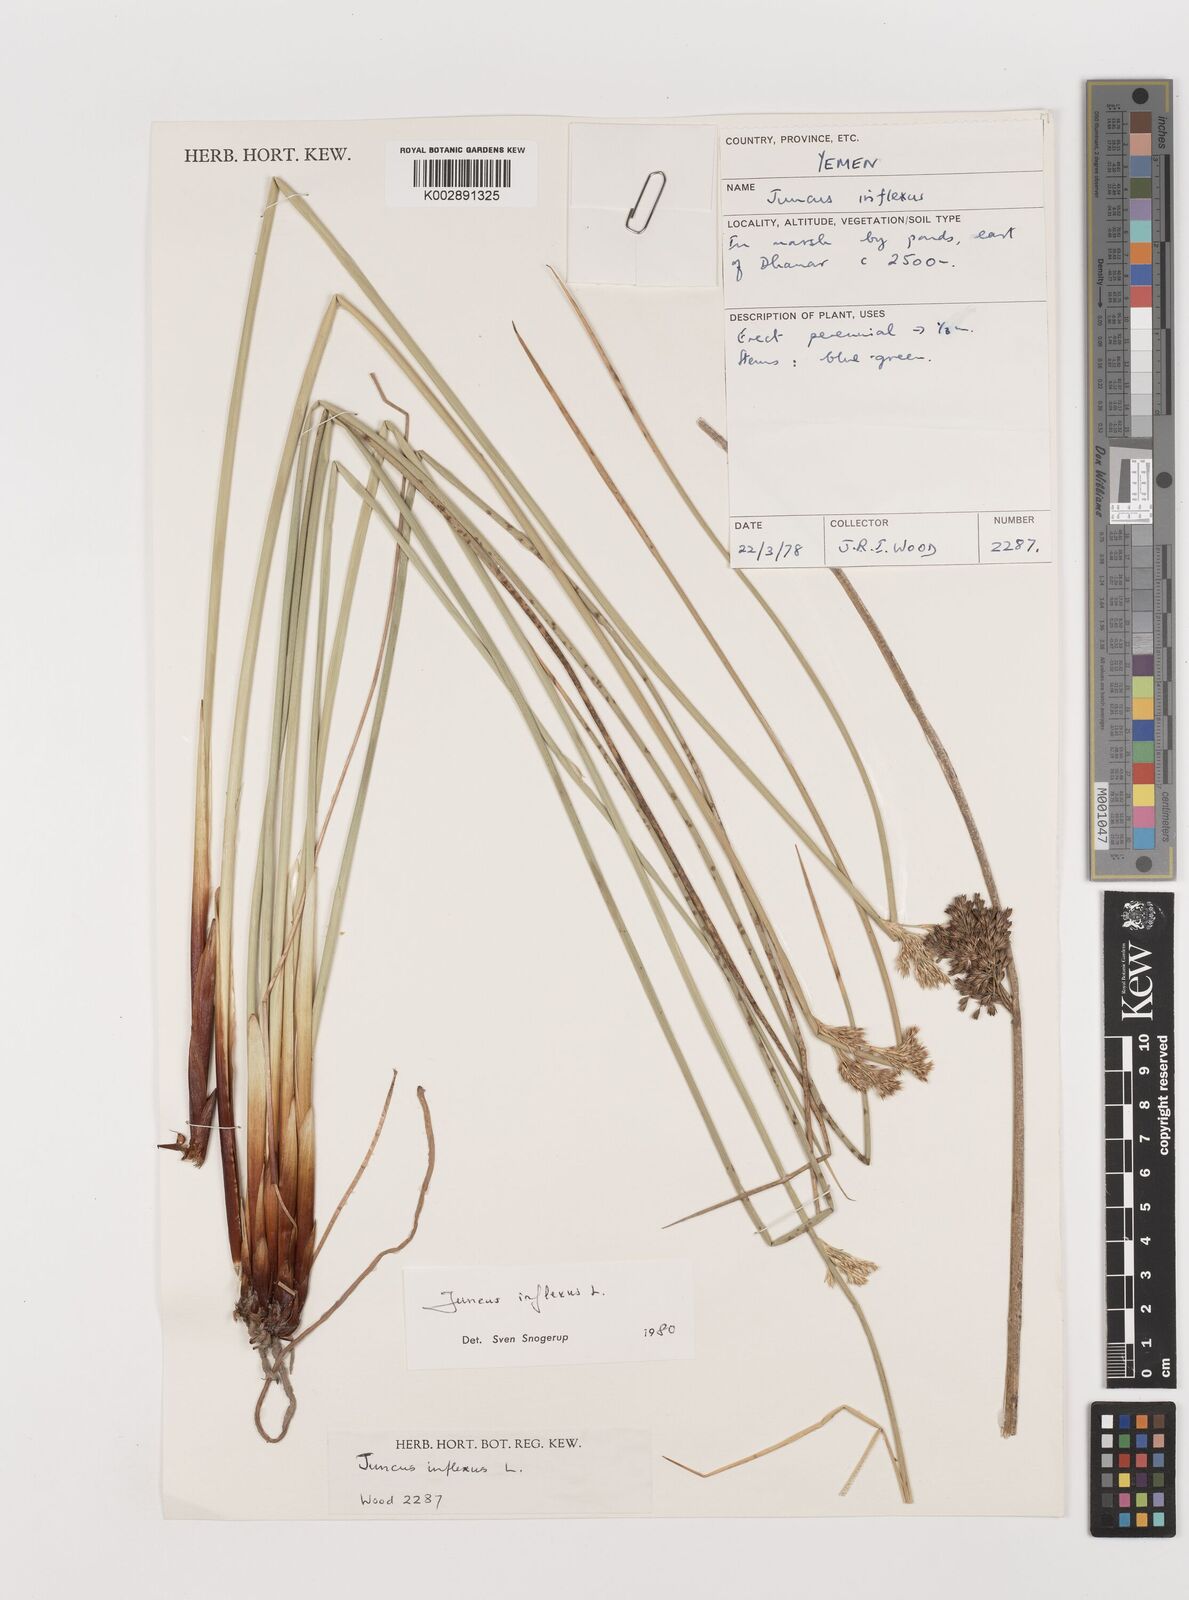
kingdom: Plantae
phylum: Tracheophyta
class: Liliopsida
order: Poales
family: Juncaceae
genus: Juncus
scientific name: Juncus inflexus
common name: Hard rush
